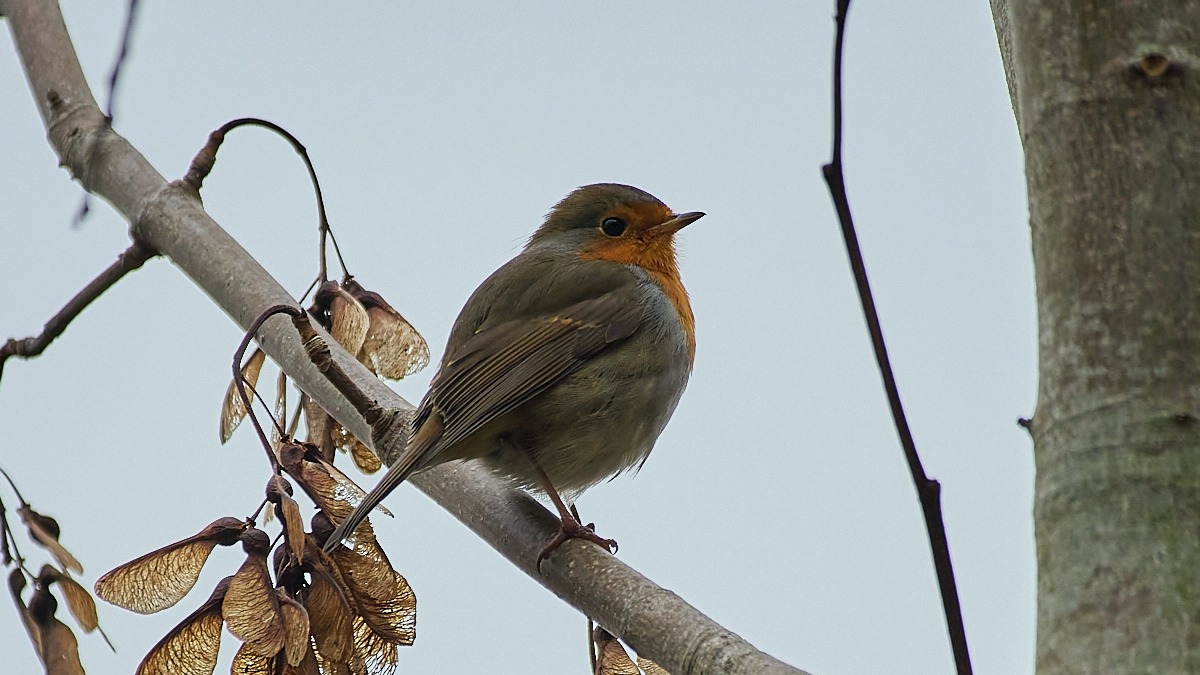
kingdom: Animalia
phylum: Chordata
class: Aves
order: Passeriformes
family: Muscicapidae
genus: Erithacus
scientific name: Erithacus rubecula
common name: Rødhals/rødkælk
